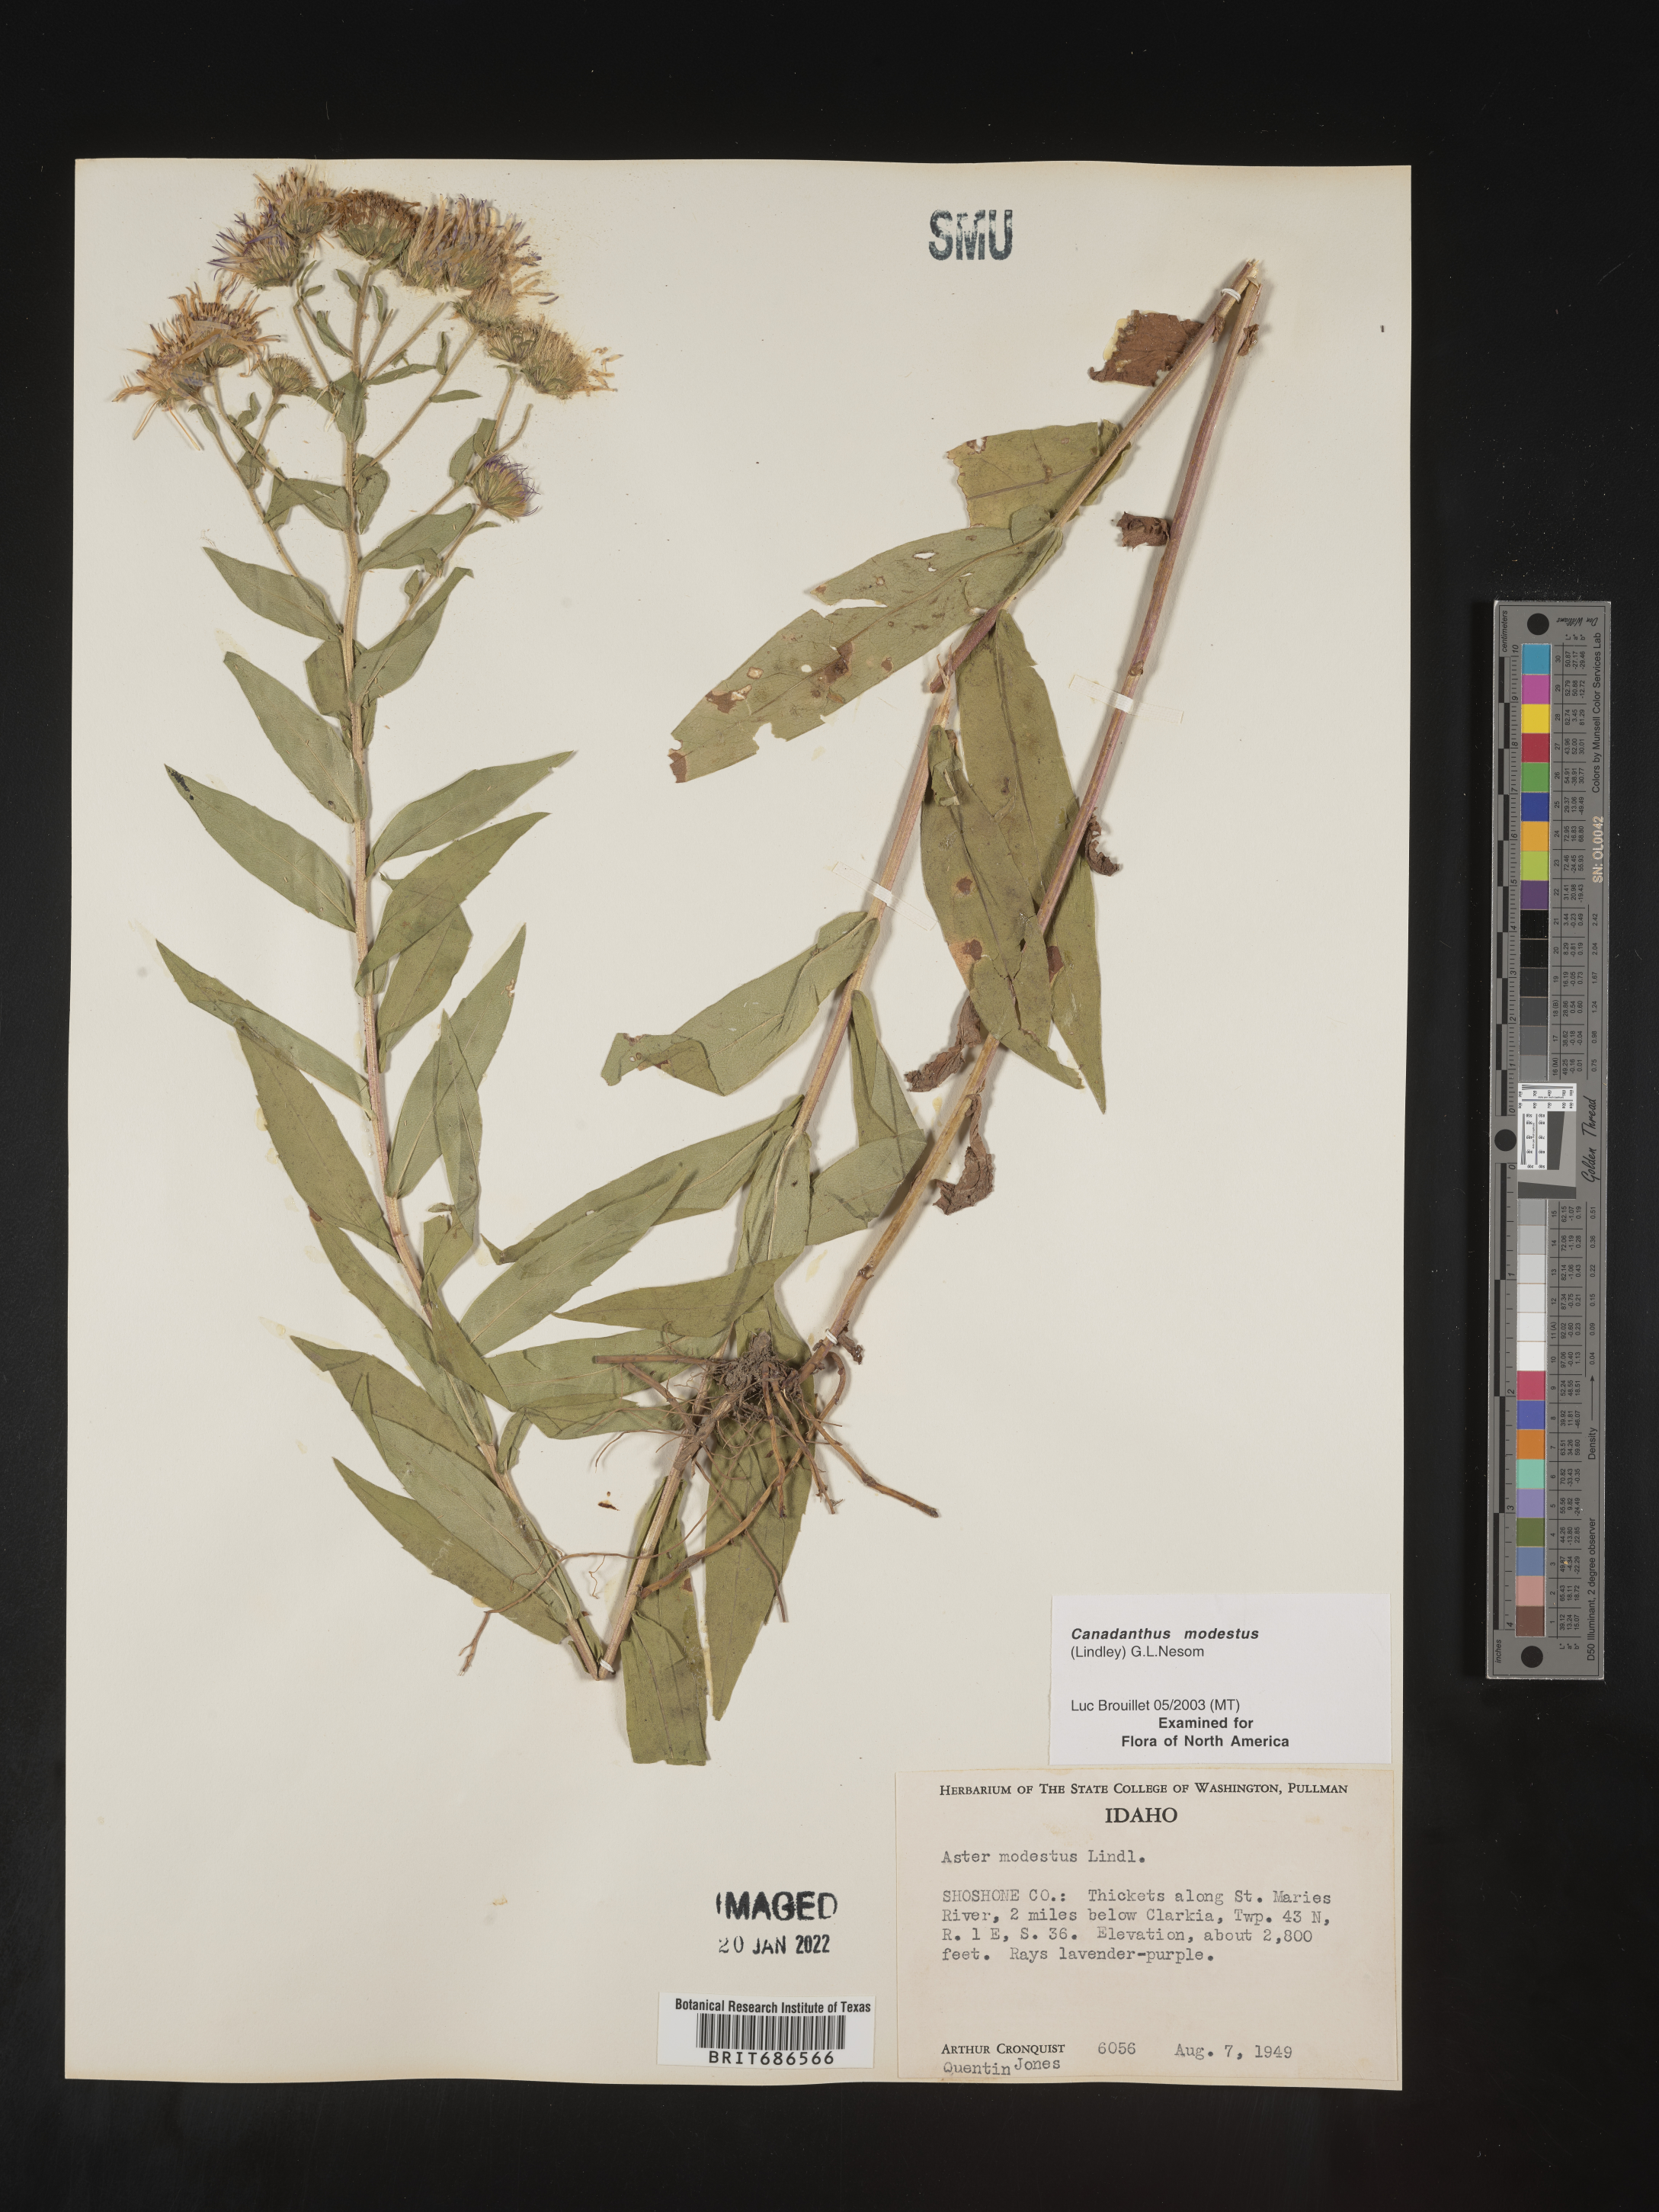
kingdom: Plantae
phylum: Tracheophyta
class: Magnoliopsida
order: Asterales
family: Asteraceae
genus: Canadanthus
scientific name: Canadanthus modestus
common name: Great northern aster
